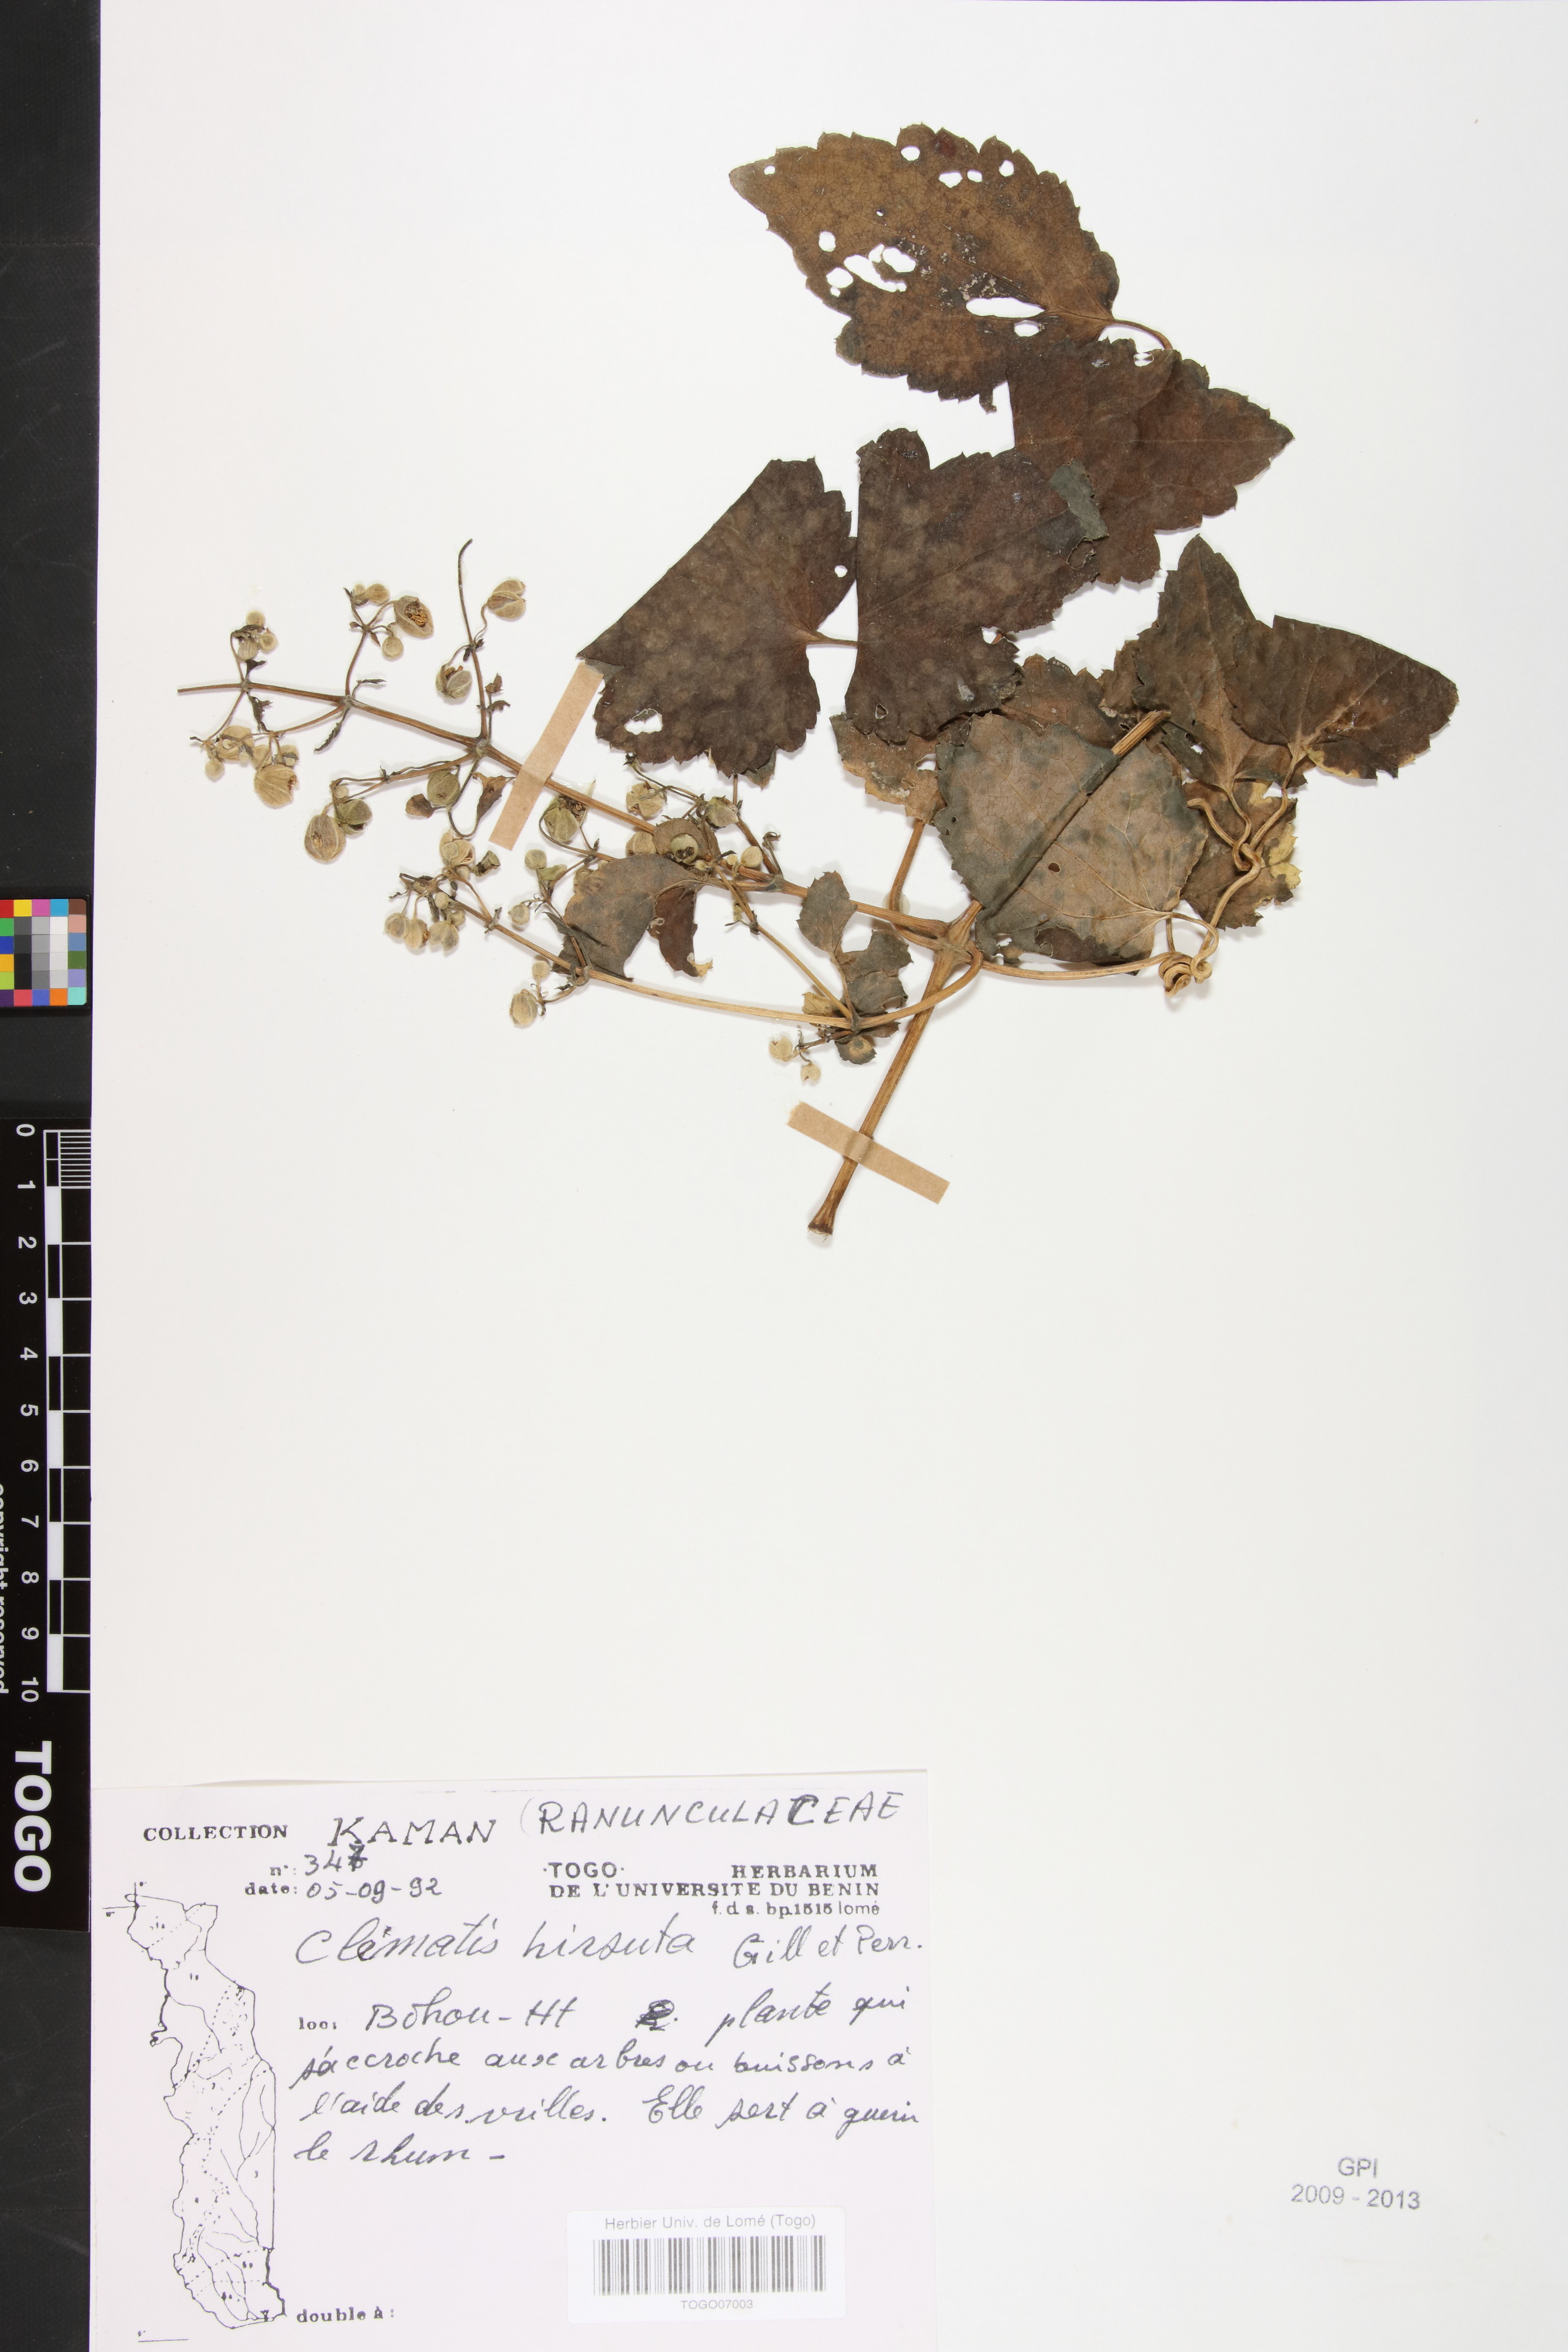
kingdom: Plantae
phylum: Tracheophyta
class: Magnoliopsida
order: Ranunculales
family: Ranunculaceae
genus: Clematis
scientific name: Clematis hirsuta
